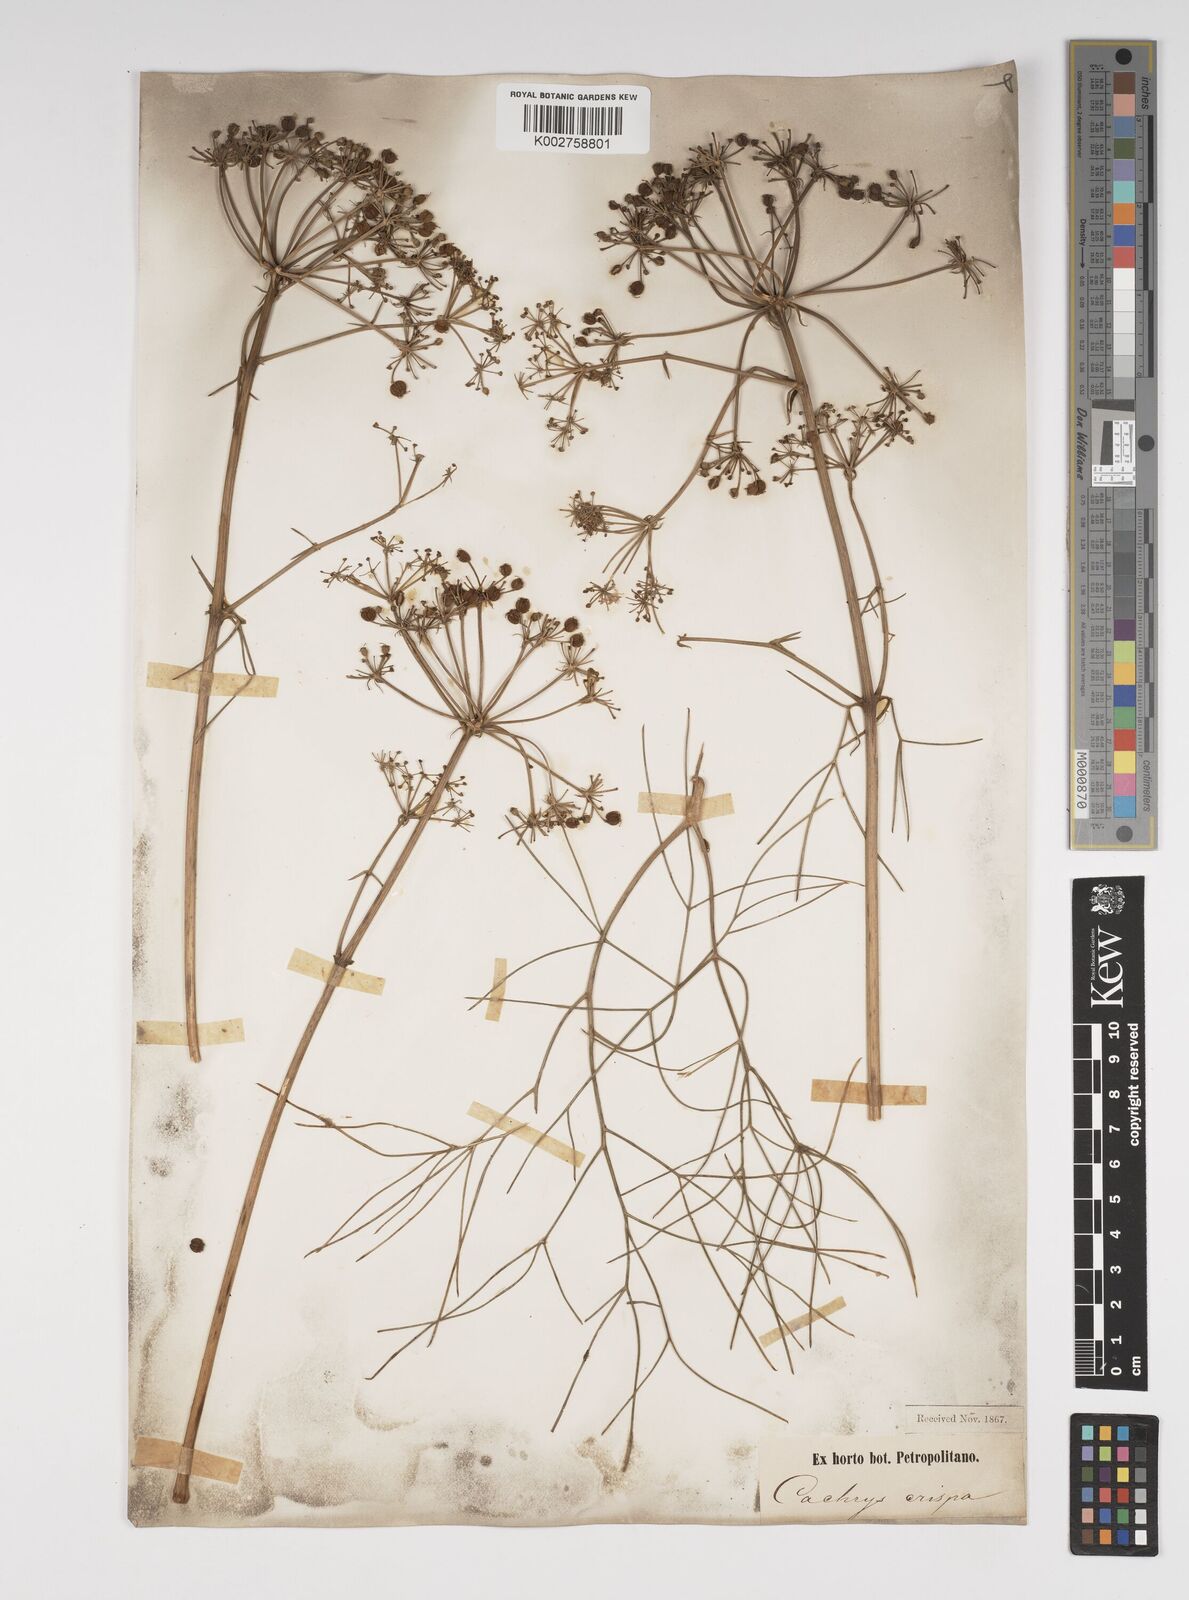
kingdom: Plantae
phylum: Tracheophyta
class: Magnoliopsida
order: Apiales
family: Apiaceae
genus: Bilacunaria
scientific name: Bilacunaria microcarpa
